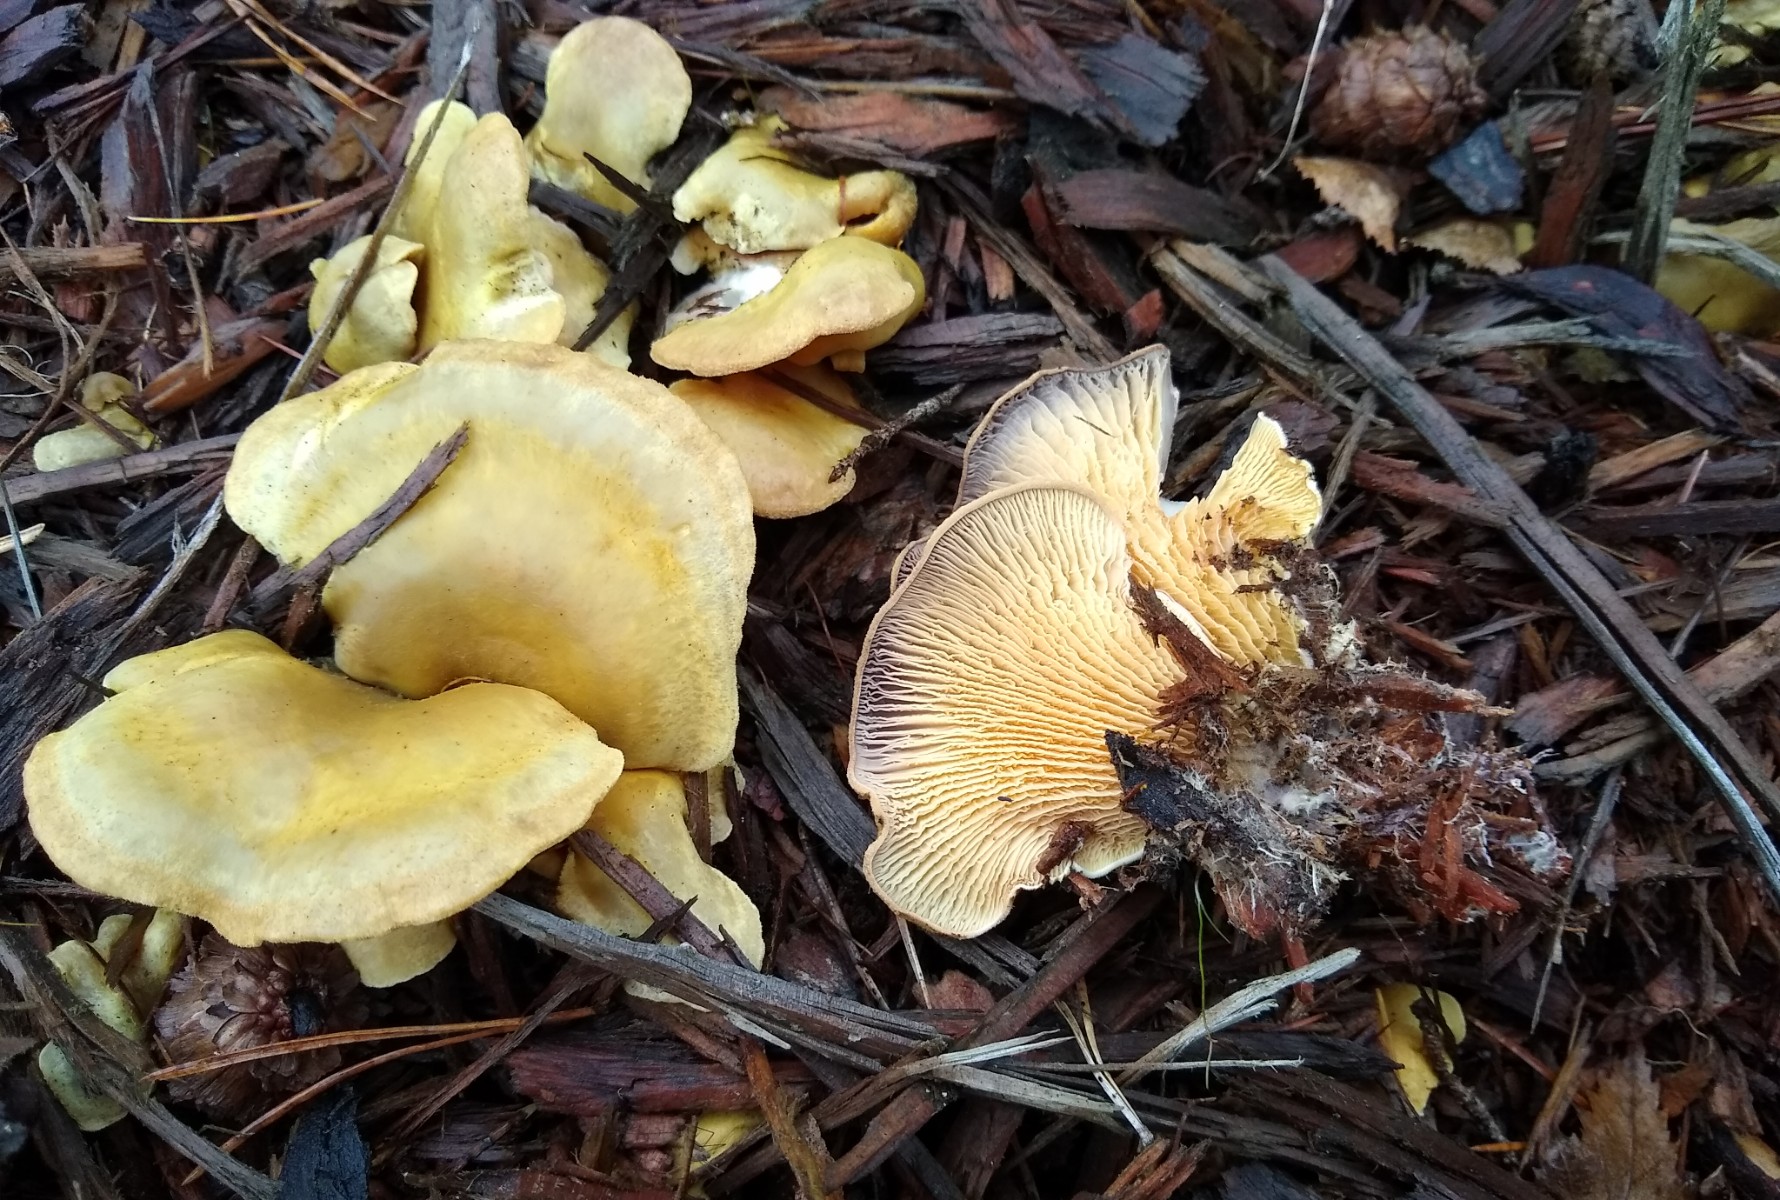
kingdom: Fungi
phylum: Basidiomycota
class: Agaricomycetes
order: Boletales
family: Tapinellaceae
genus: Tapinella
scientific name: Tapinella panuoides
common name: tømmer-viftesvamp
